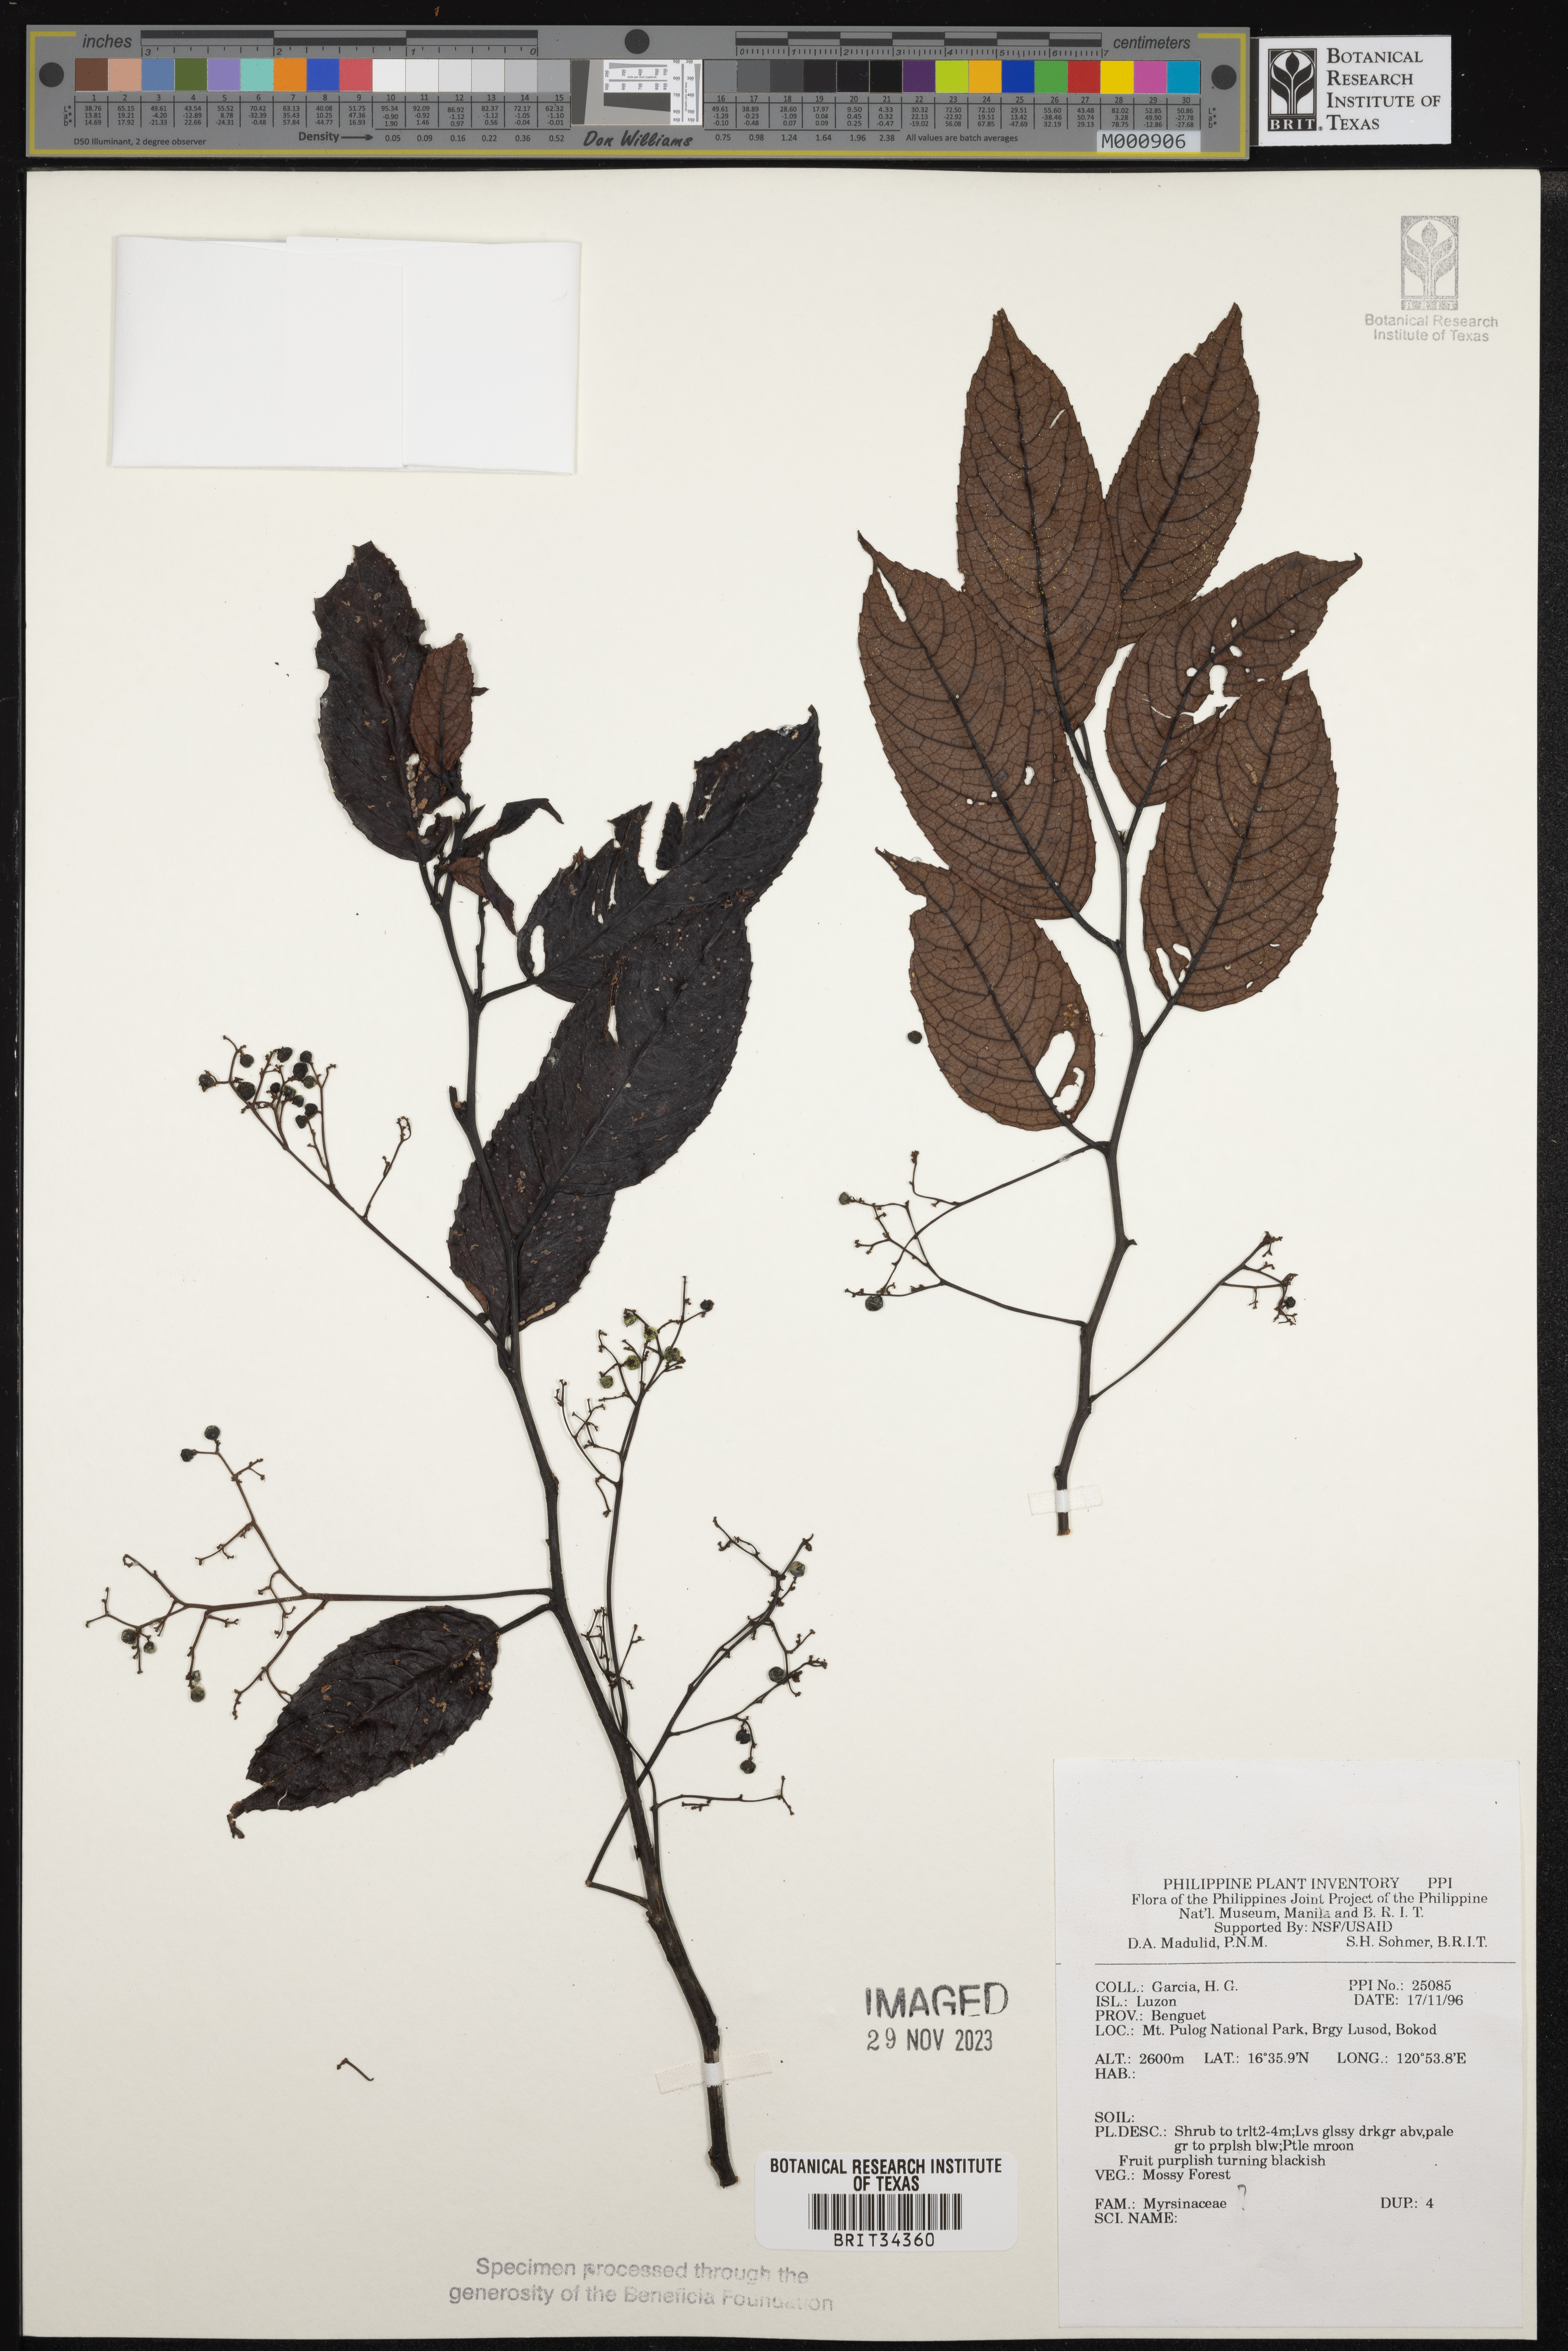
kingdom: Plantae
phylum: Tracheophyta
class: Magnoliopsida
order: Ericales
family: Primulaceae
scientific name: Primulaceae
